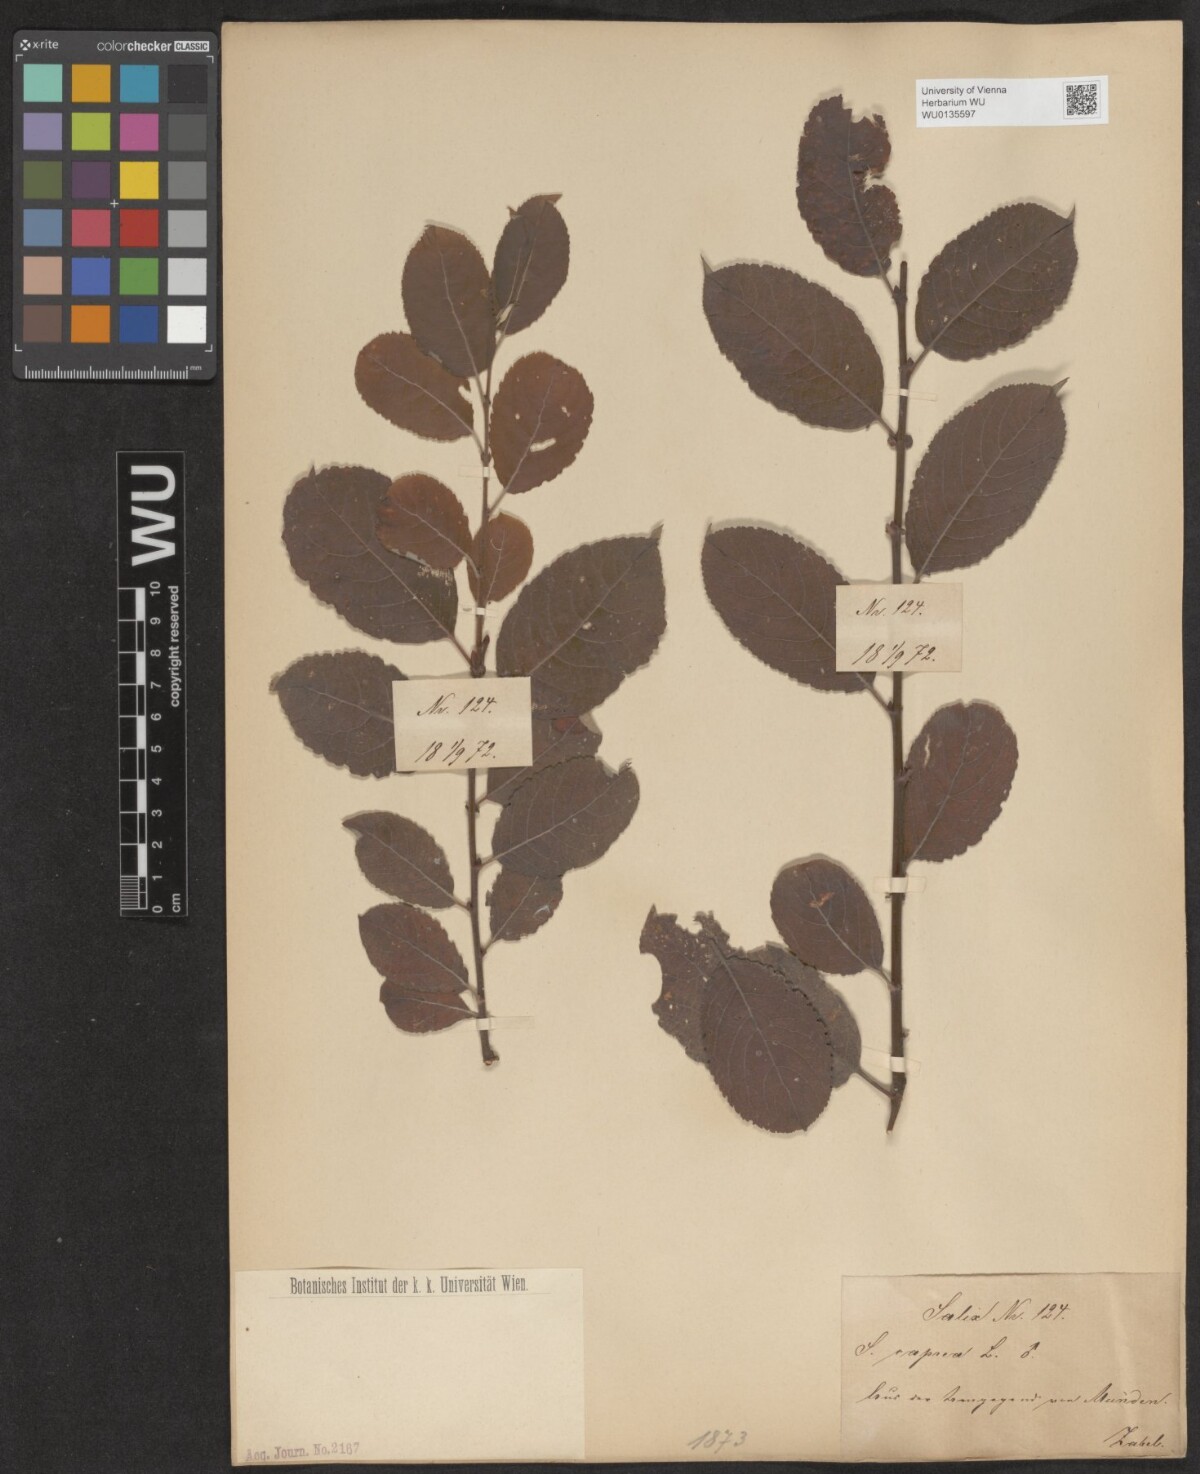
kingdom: Plantae
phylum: Tracheophyta
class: Magnoliopsida
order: Malpighiales
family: Salicaceae
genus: Salix
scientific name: Salix caprea
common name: Goat willow
